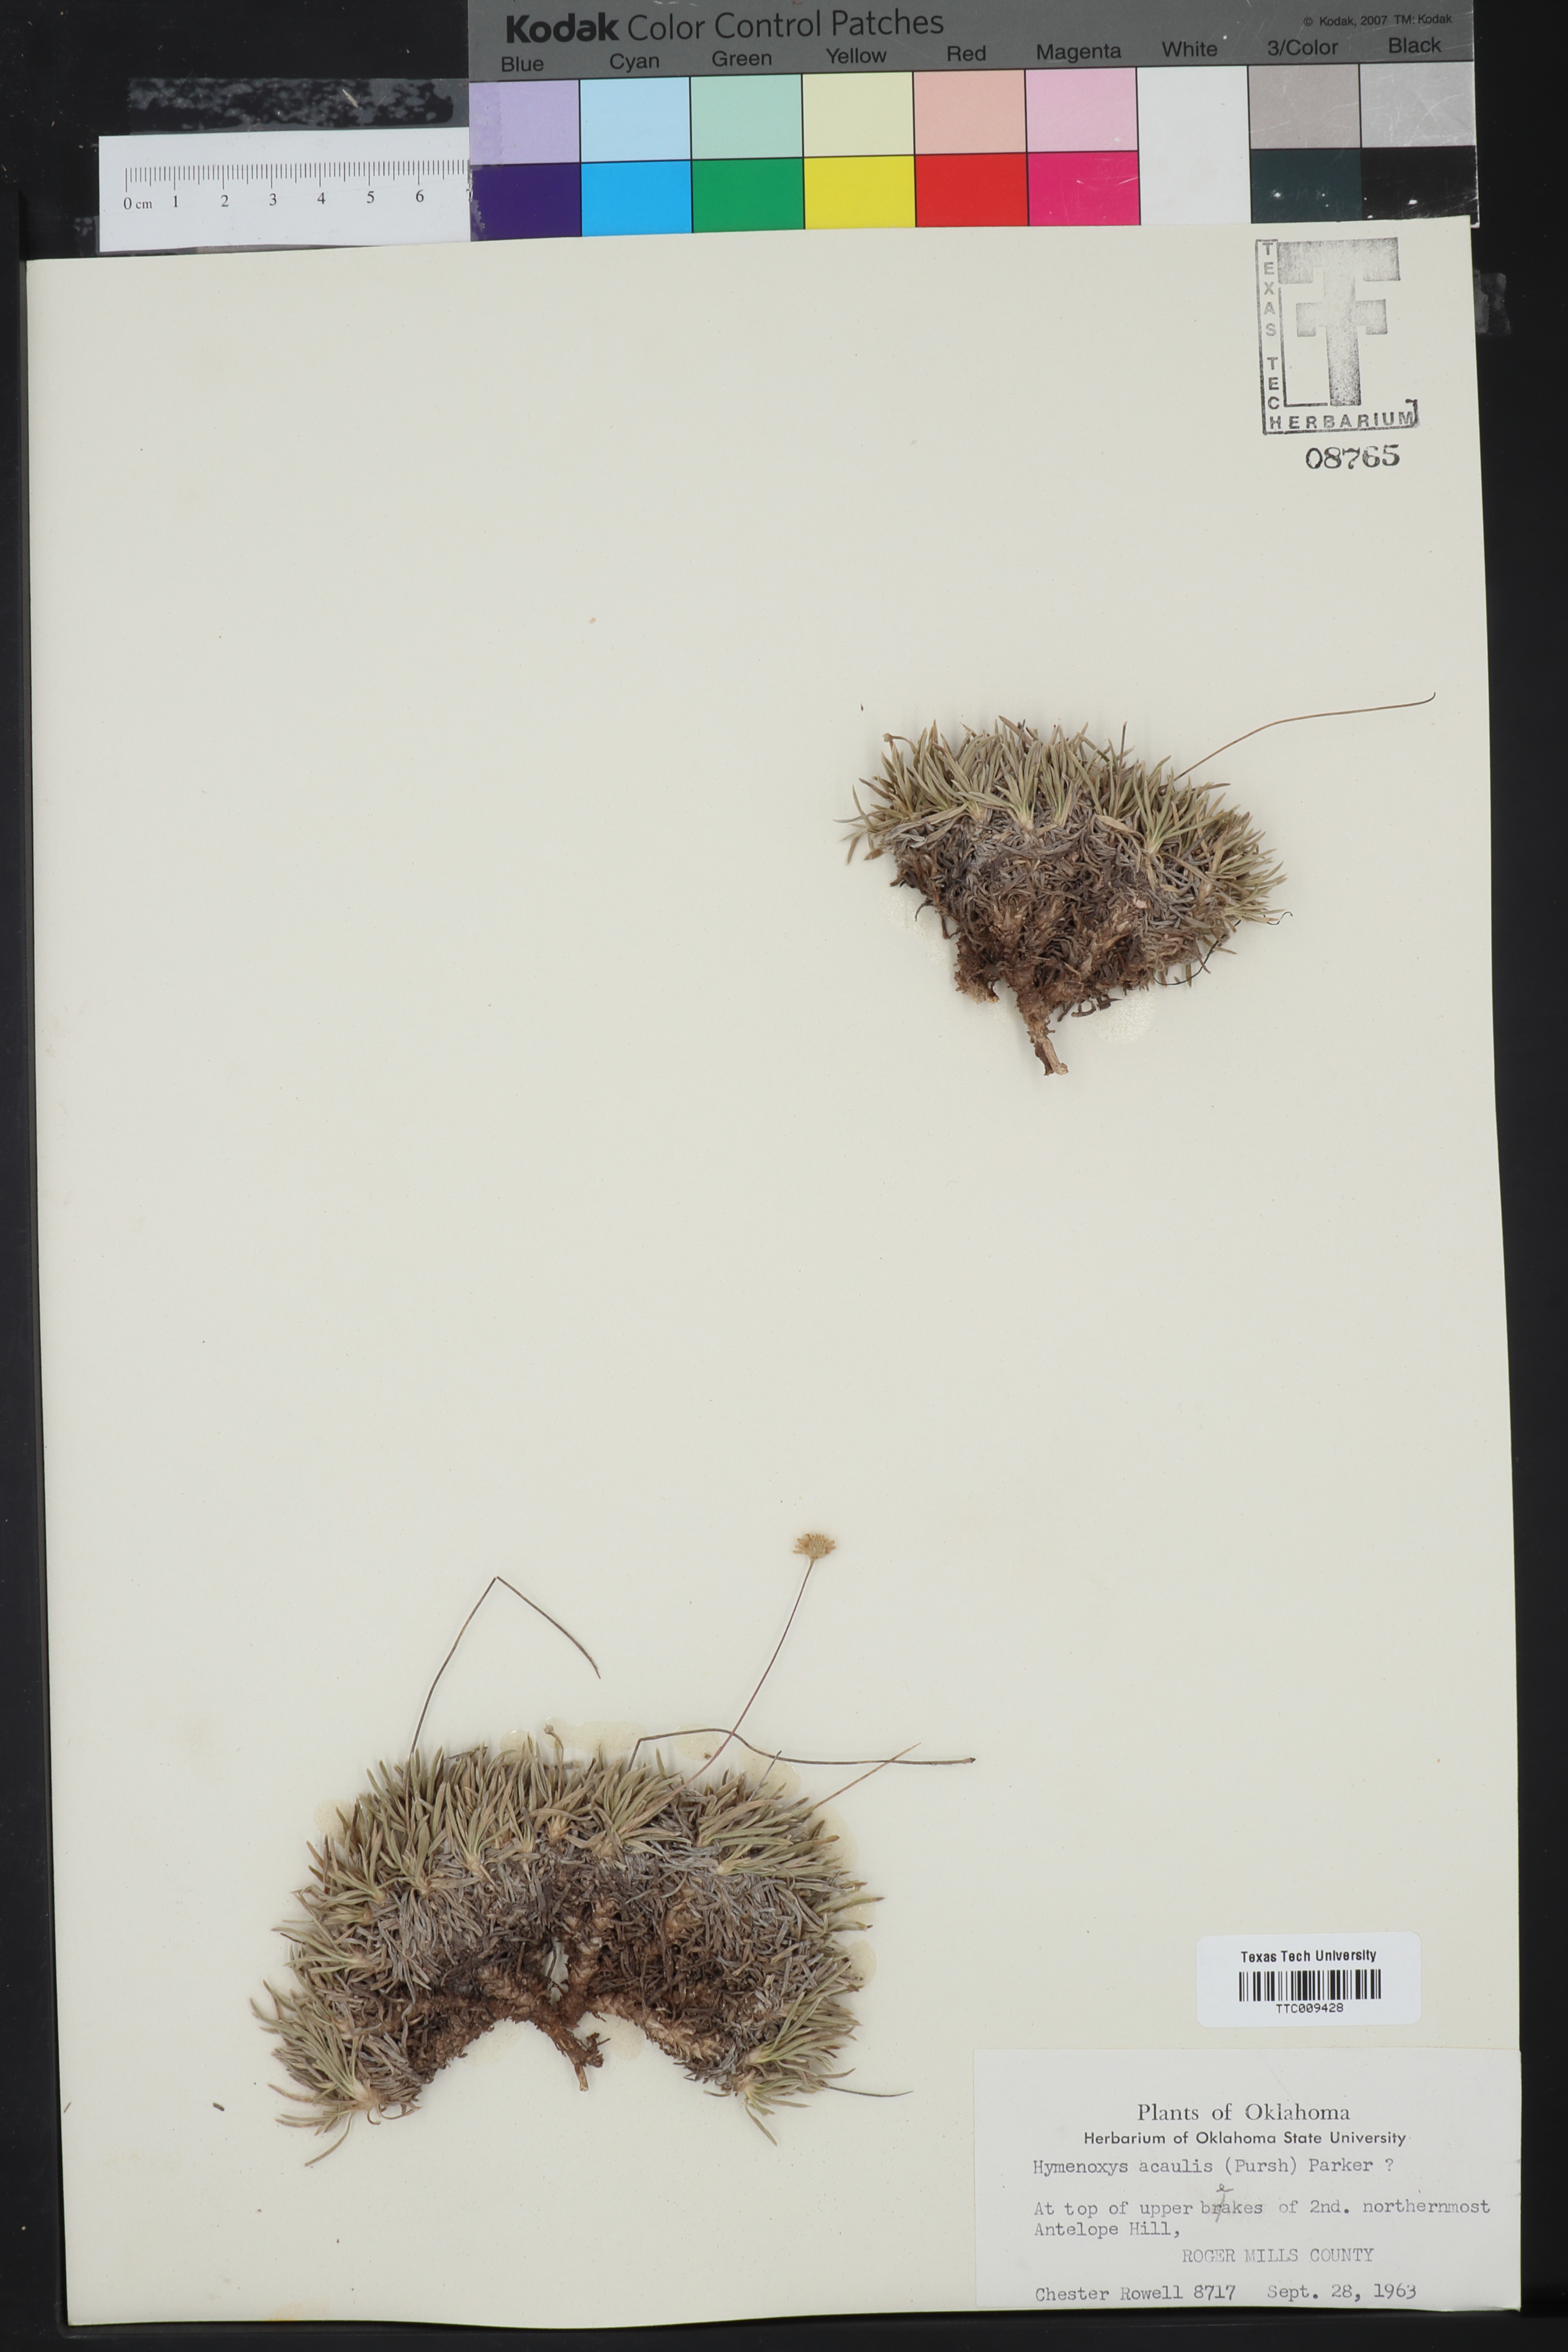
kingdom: Plantae
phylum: Tracheophyta
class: Magnoliopsida
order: Asterales
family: Asteraceae
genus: Tetraneuris
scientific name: Tetraneuris acaulis
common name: Butte marigold
